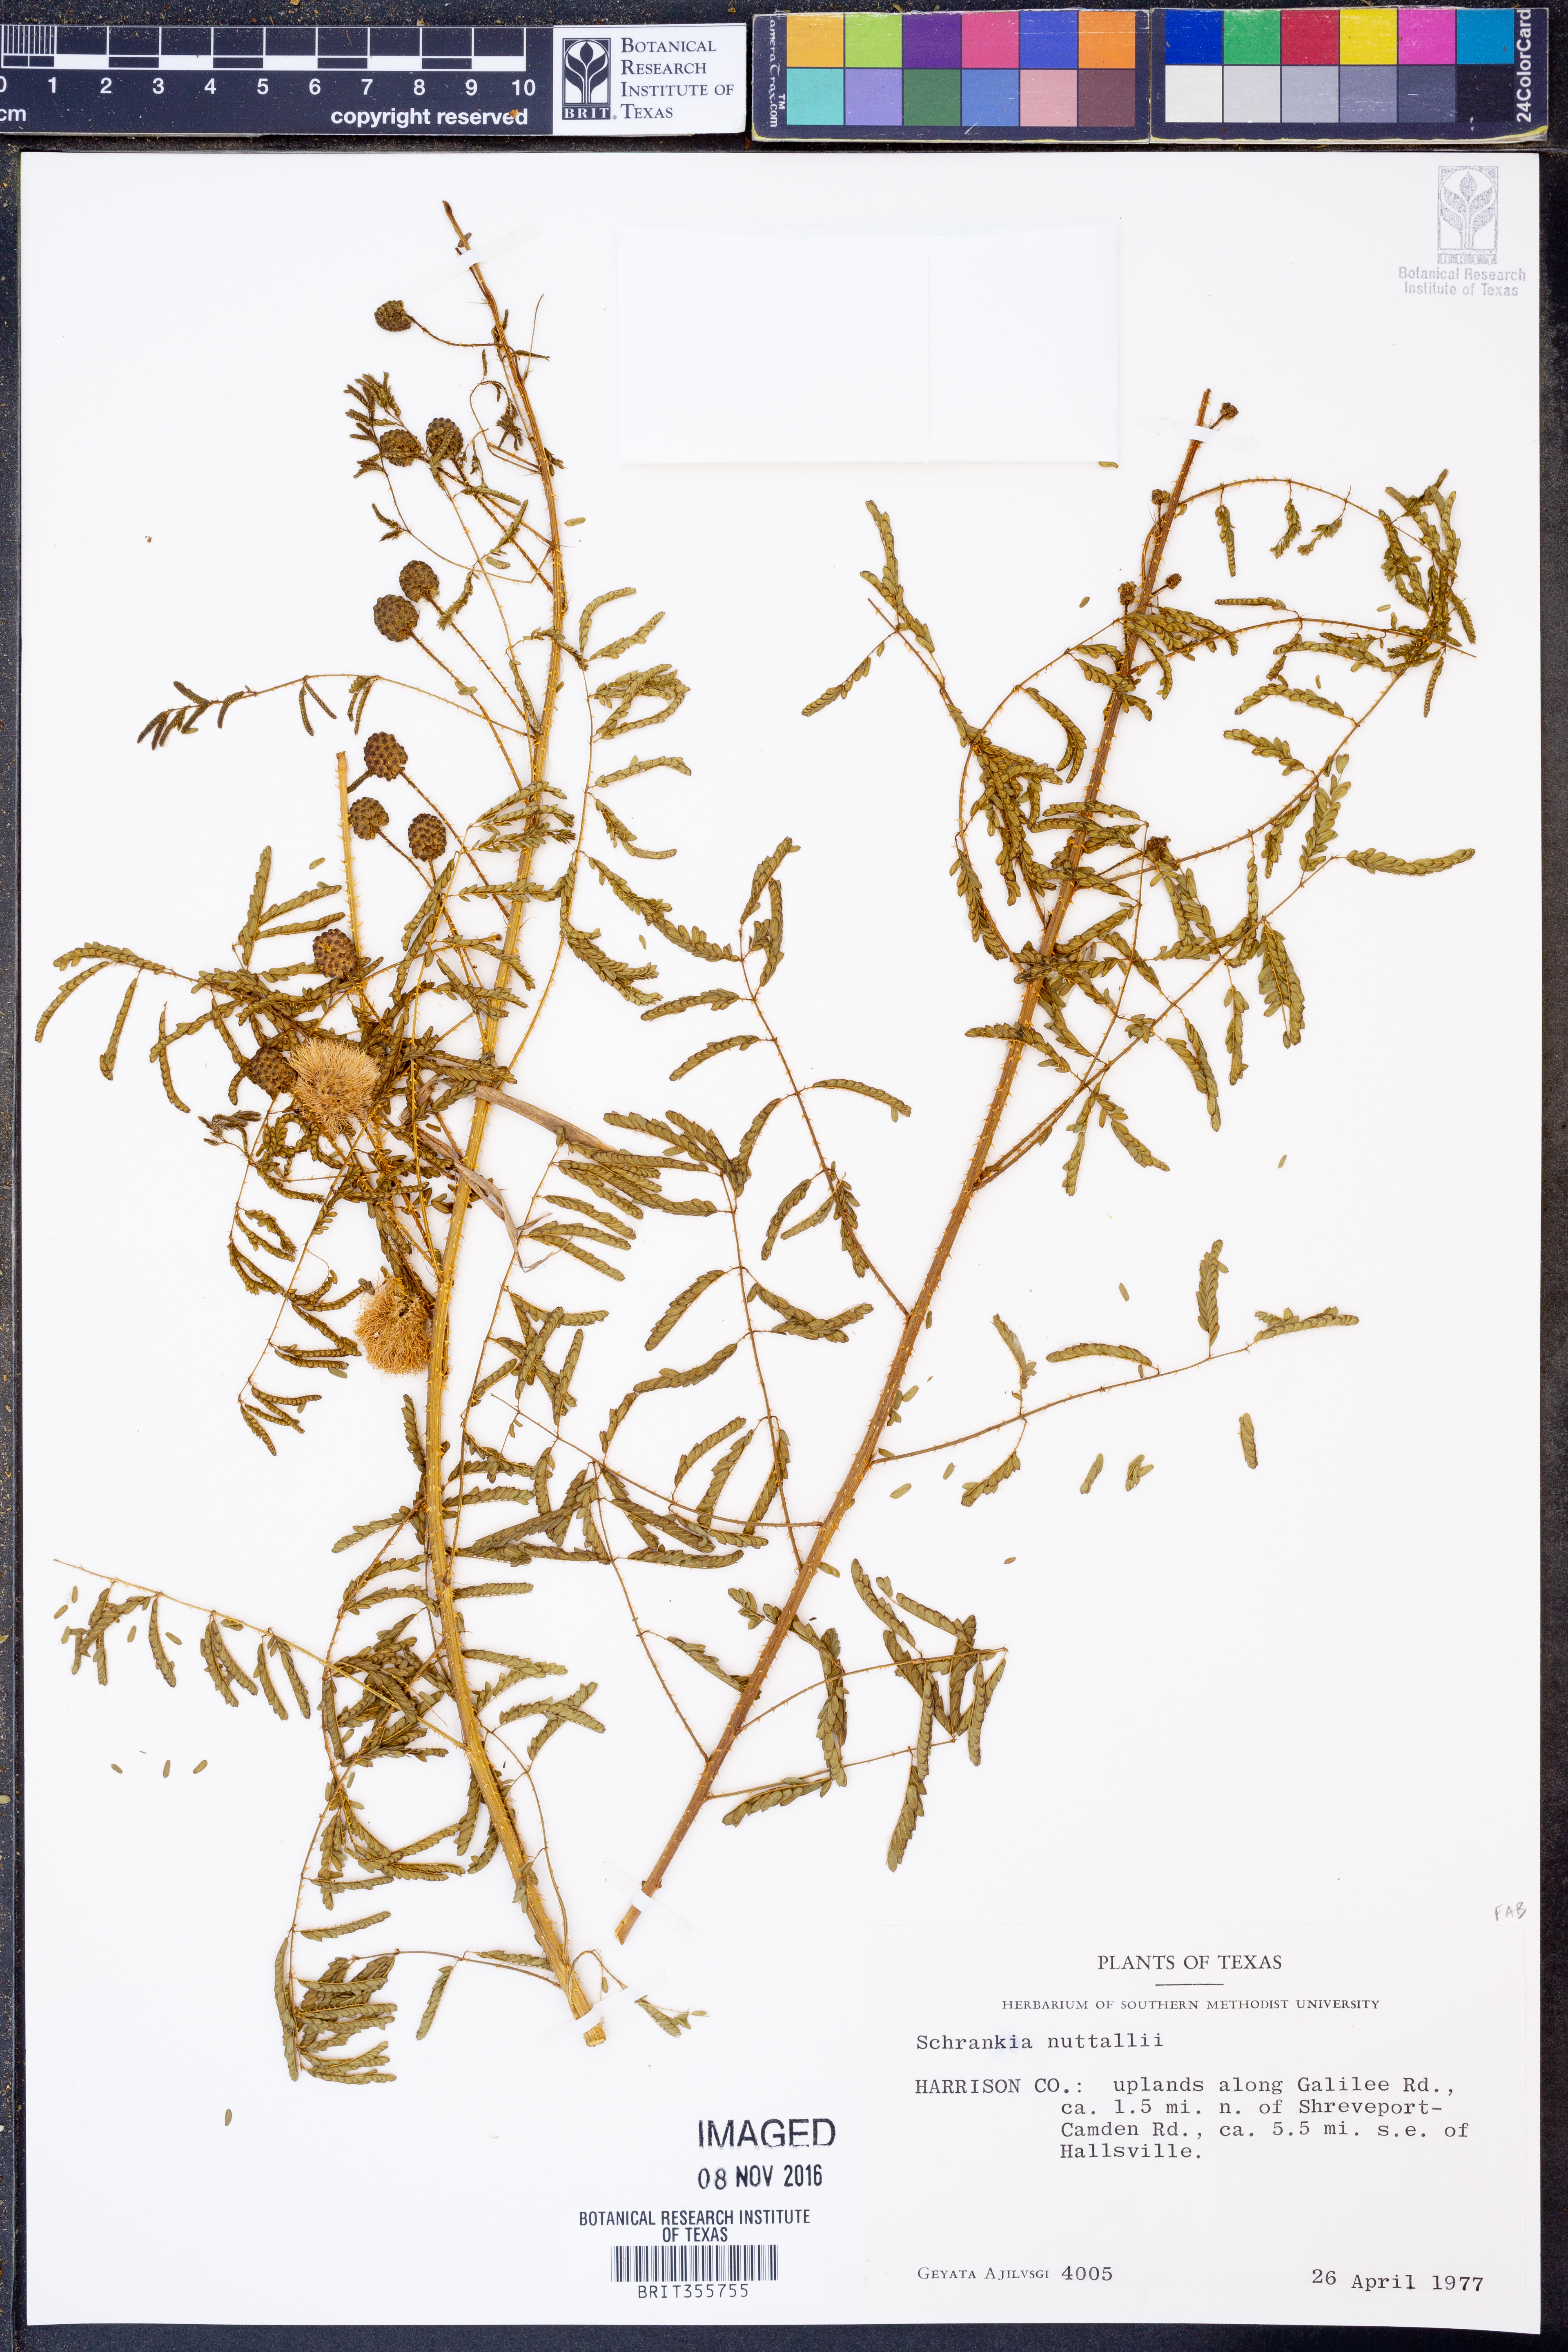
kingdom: Plantae
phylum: Tracheophyta
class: Magnoliopsida
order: Fabales
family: Fabaceae
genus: Mimosa
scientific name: Mimosa quadrivalvis
